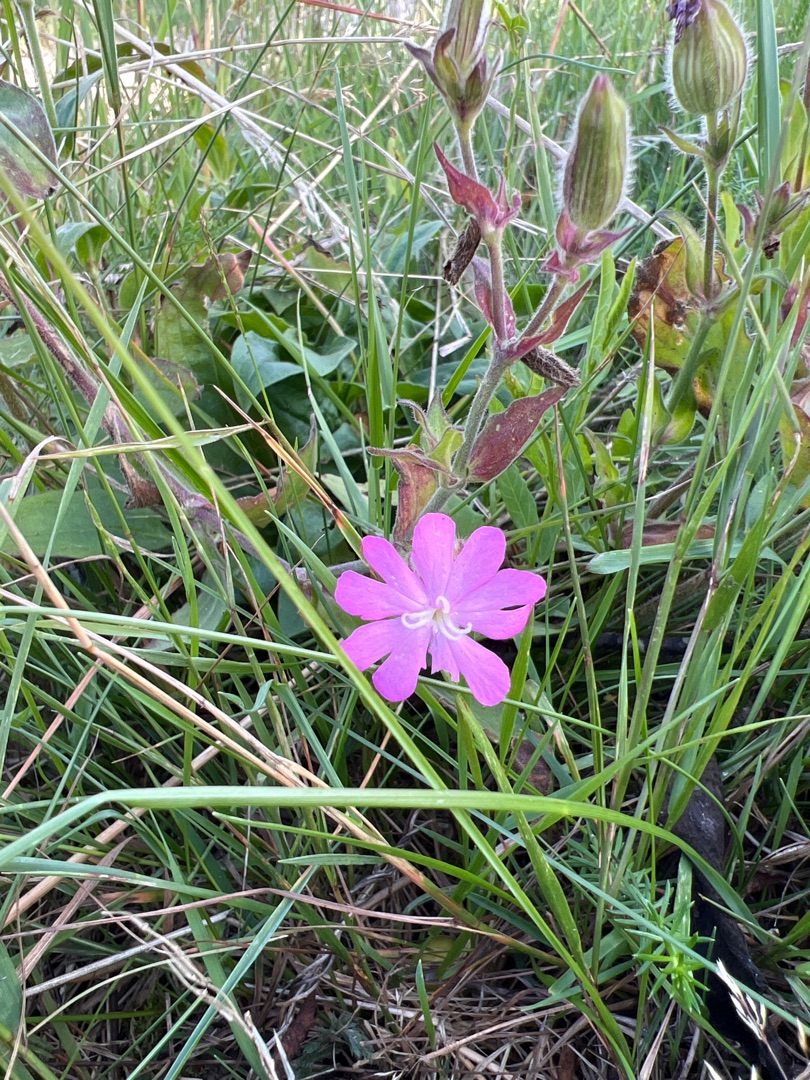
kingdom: Plantae
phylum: Tracheophyta
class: Magnoliopsida
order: Caryophyllales
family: Caryophyllaceae
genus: Silene
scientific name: Silene dioica
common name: Dagpragtstjerne
